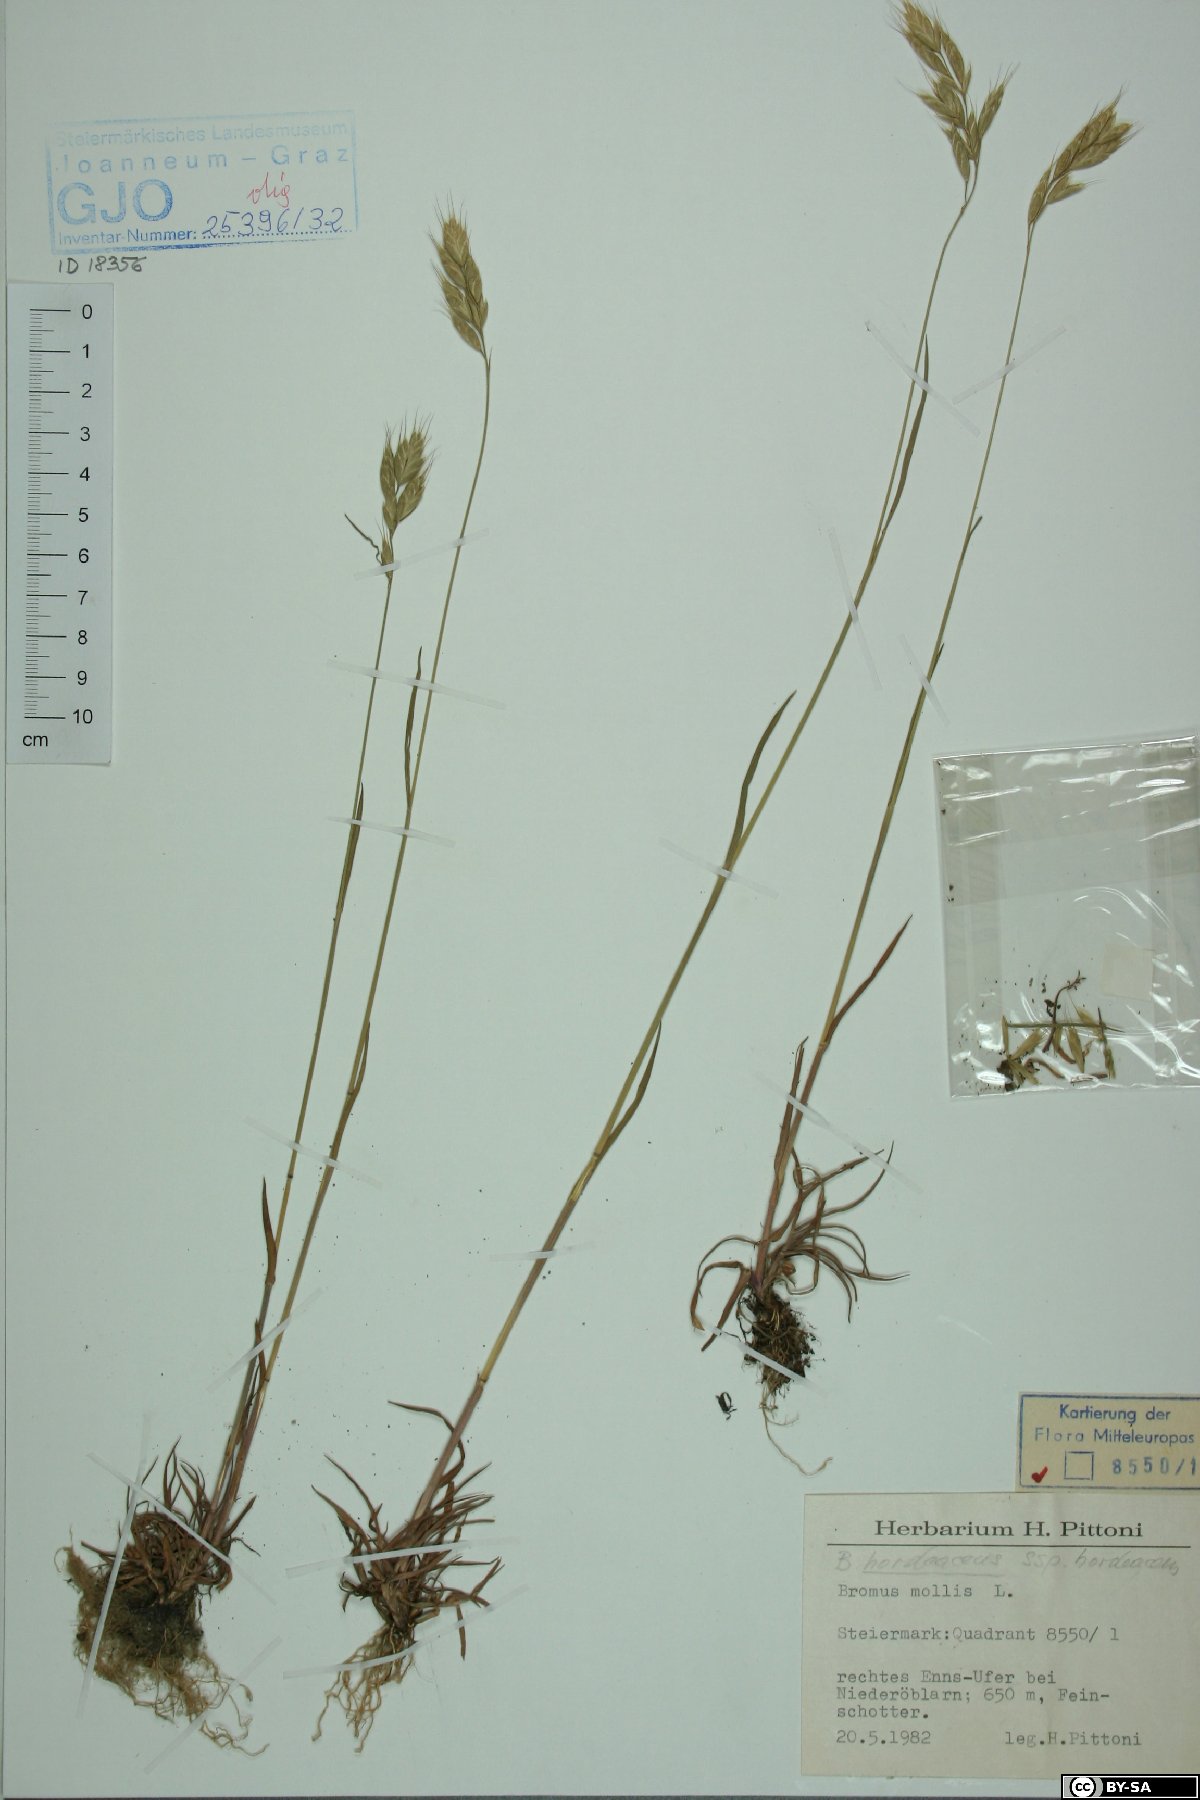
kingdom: Plantae
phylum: Tracheophyta
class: Liliopsida
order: Poales
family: Poaceae
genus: Bromus
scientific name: Bromus hordeaceus
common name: Soft brome
